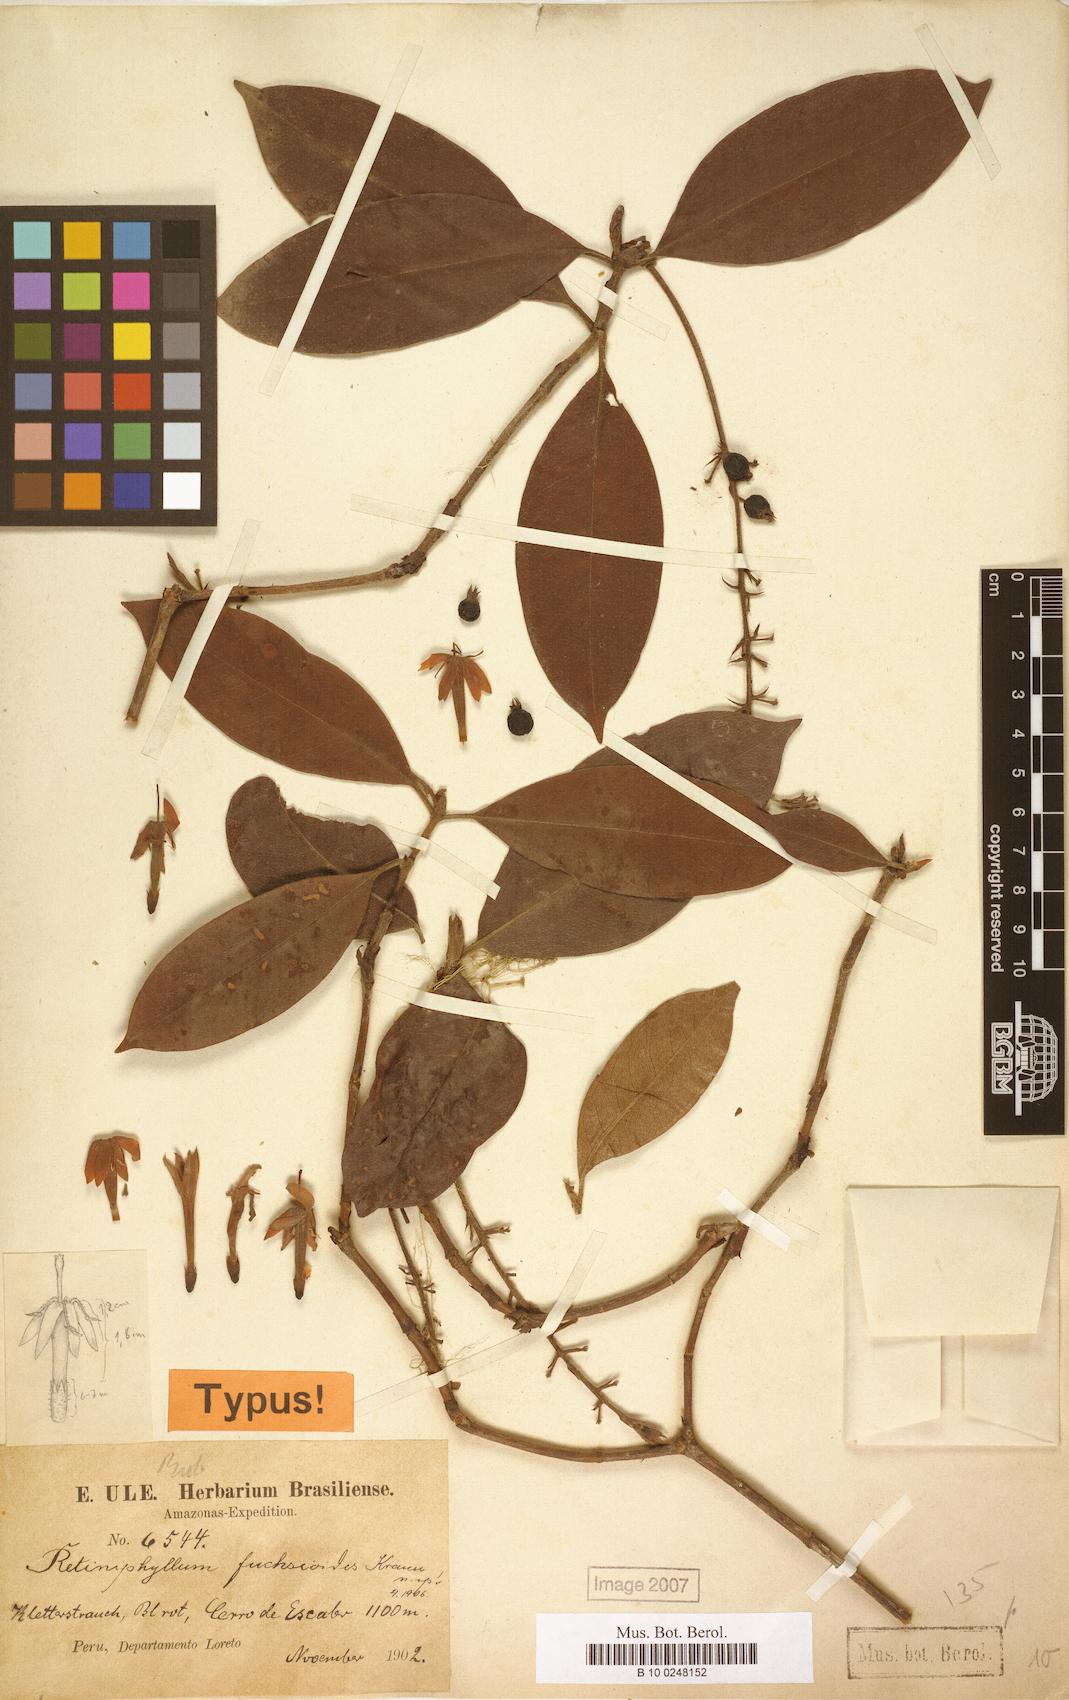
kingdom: Plantae
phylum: Tracheophyta
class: Magnoliopsida
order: Gentianales
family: Rubiaceae
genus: Retiniphyllum
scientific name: Retiniphyllum fuchsioides
